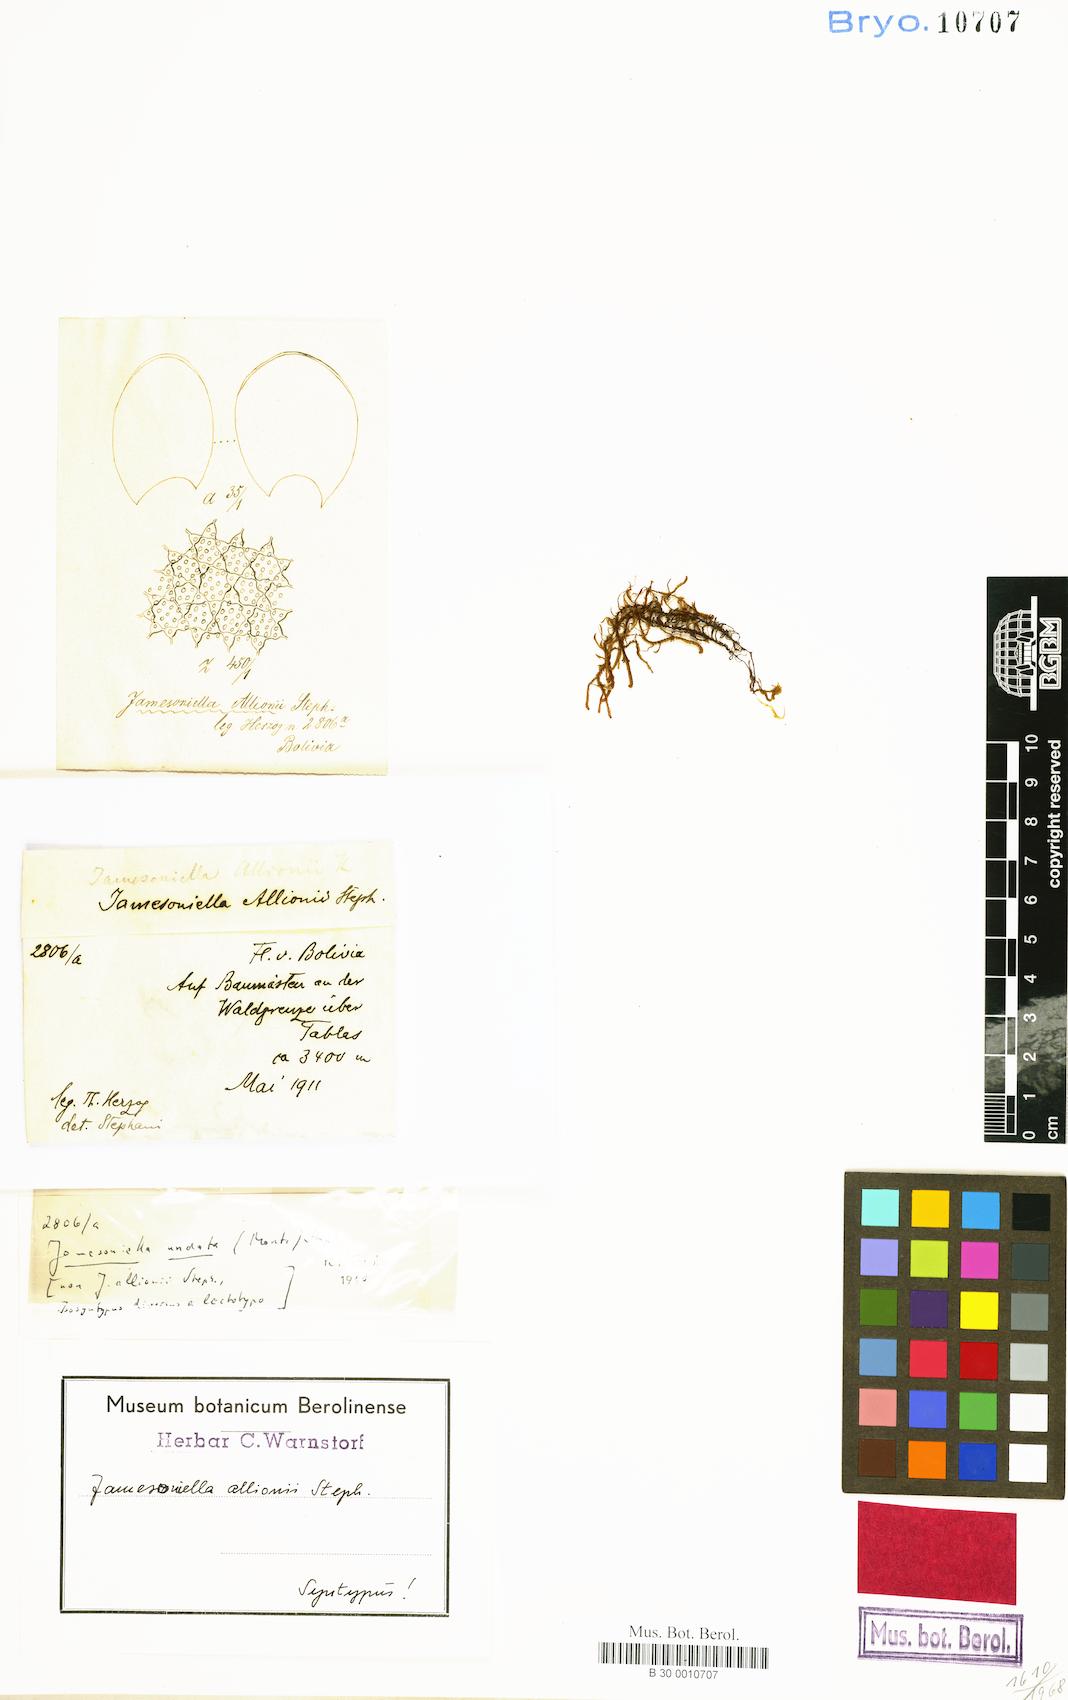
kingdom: Plantae
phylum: Marchantiophyta
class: Jungermanniopsida
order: Jungermanniales
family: Adelanthaceae
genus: Syzygiella
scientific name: Syzygiella undata
